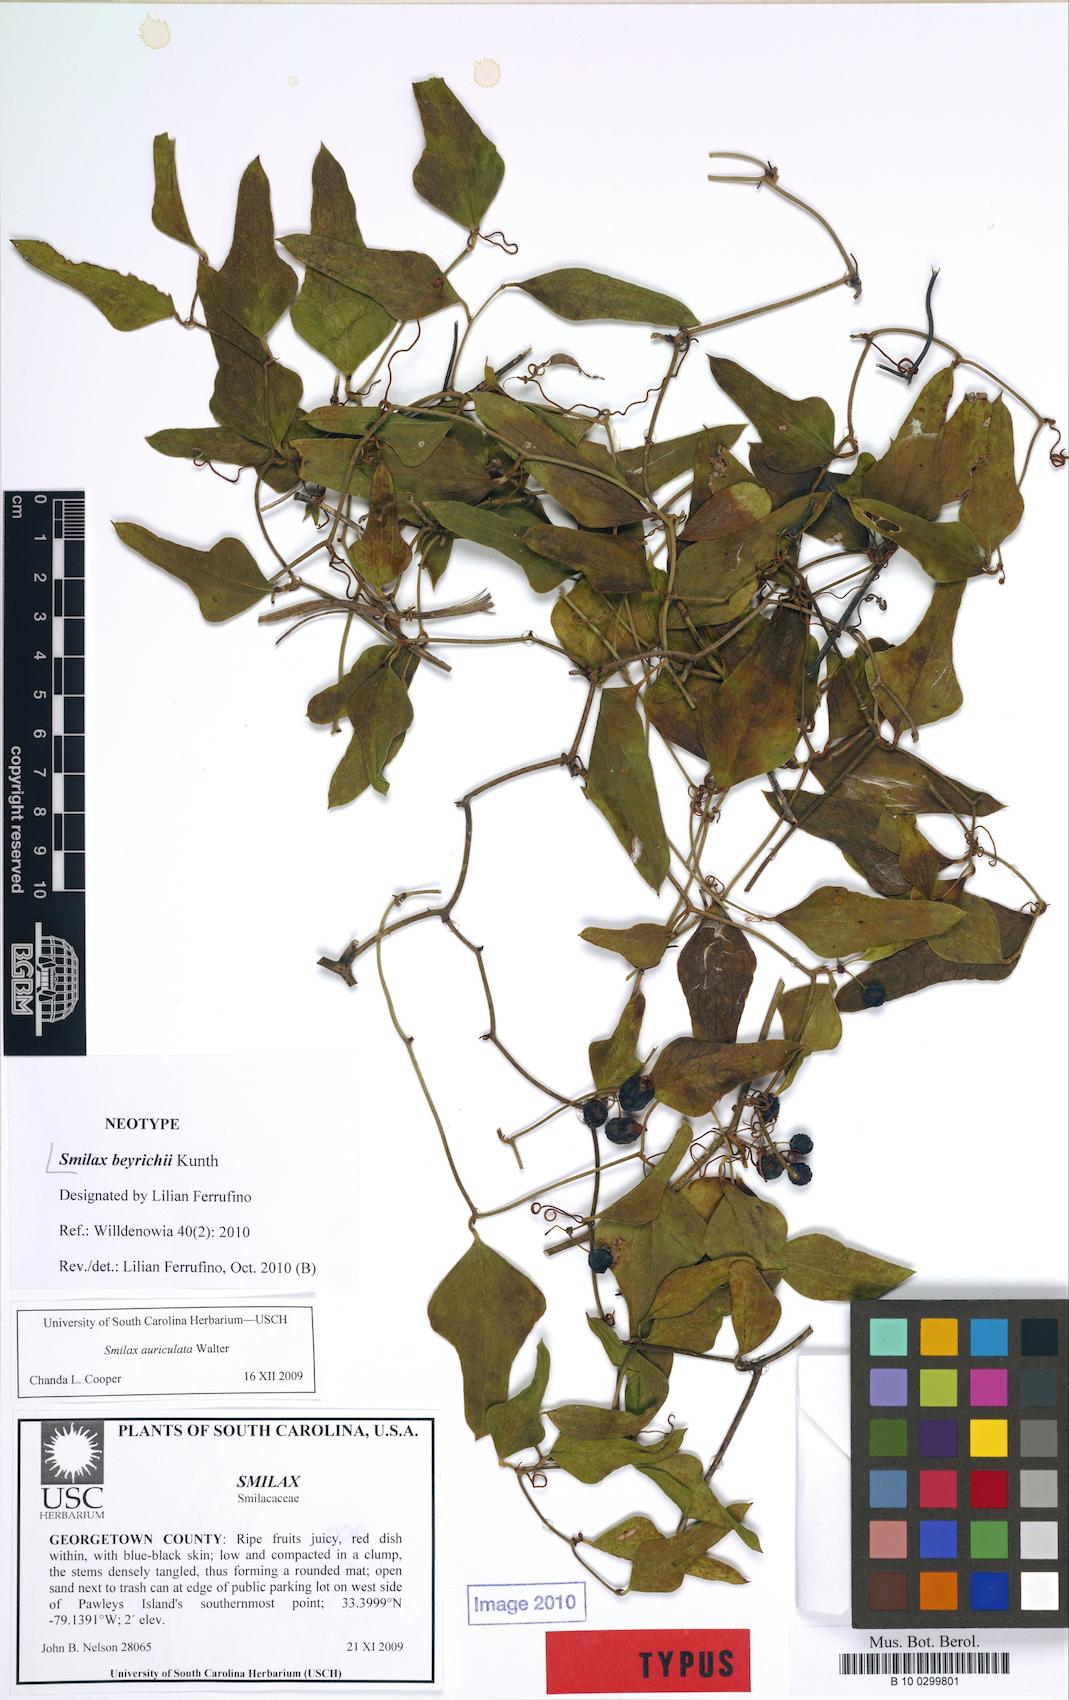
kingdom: Plantae
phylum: Tracheophyta
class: Liliopsida
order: Liliales
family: Smilacaceae
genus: Smilax
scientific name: Smilax auriculata
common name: Wild bamboo
